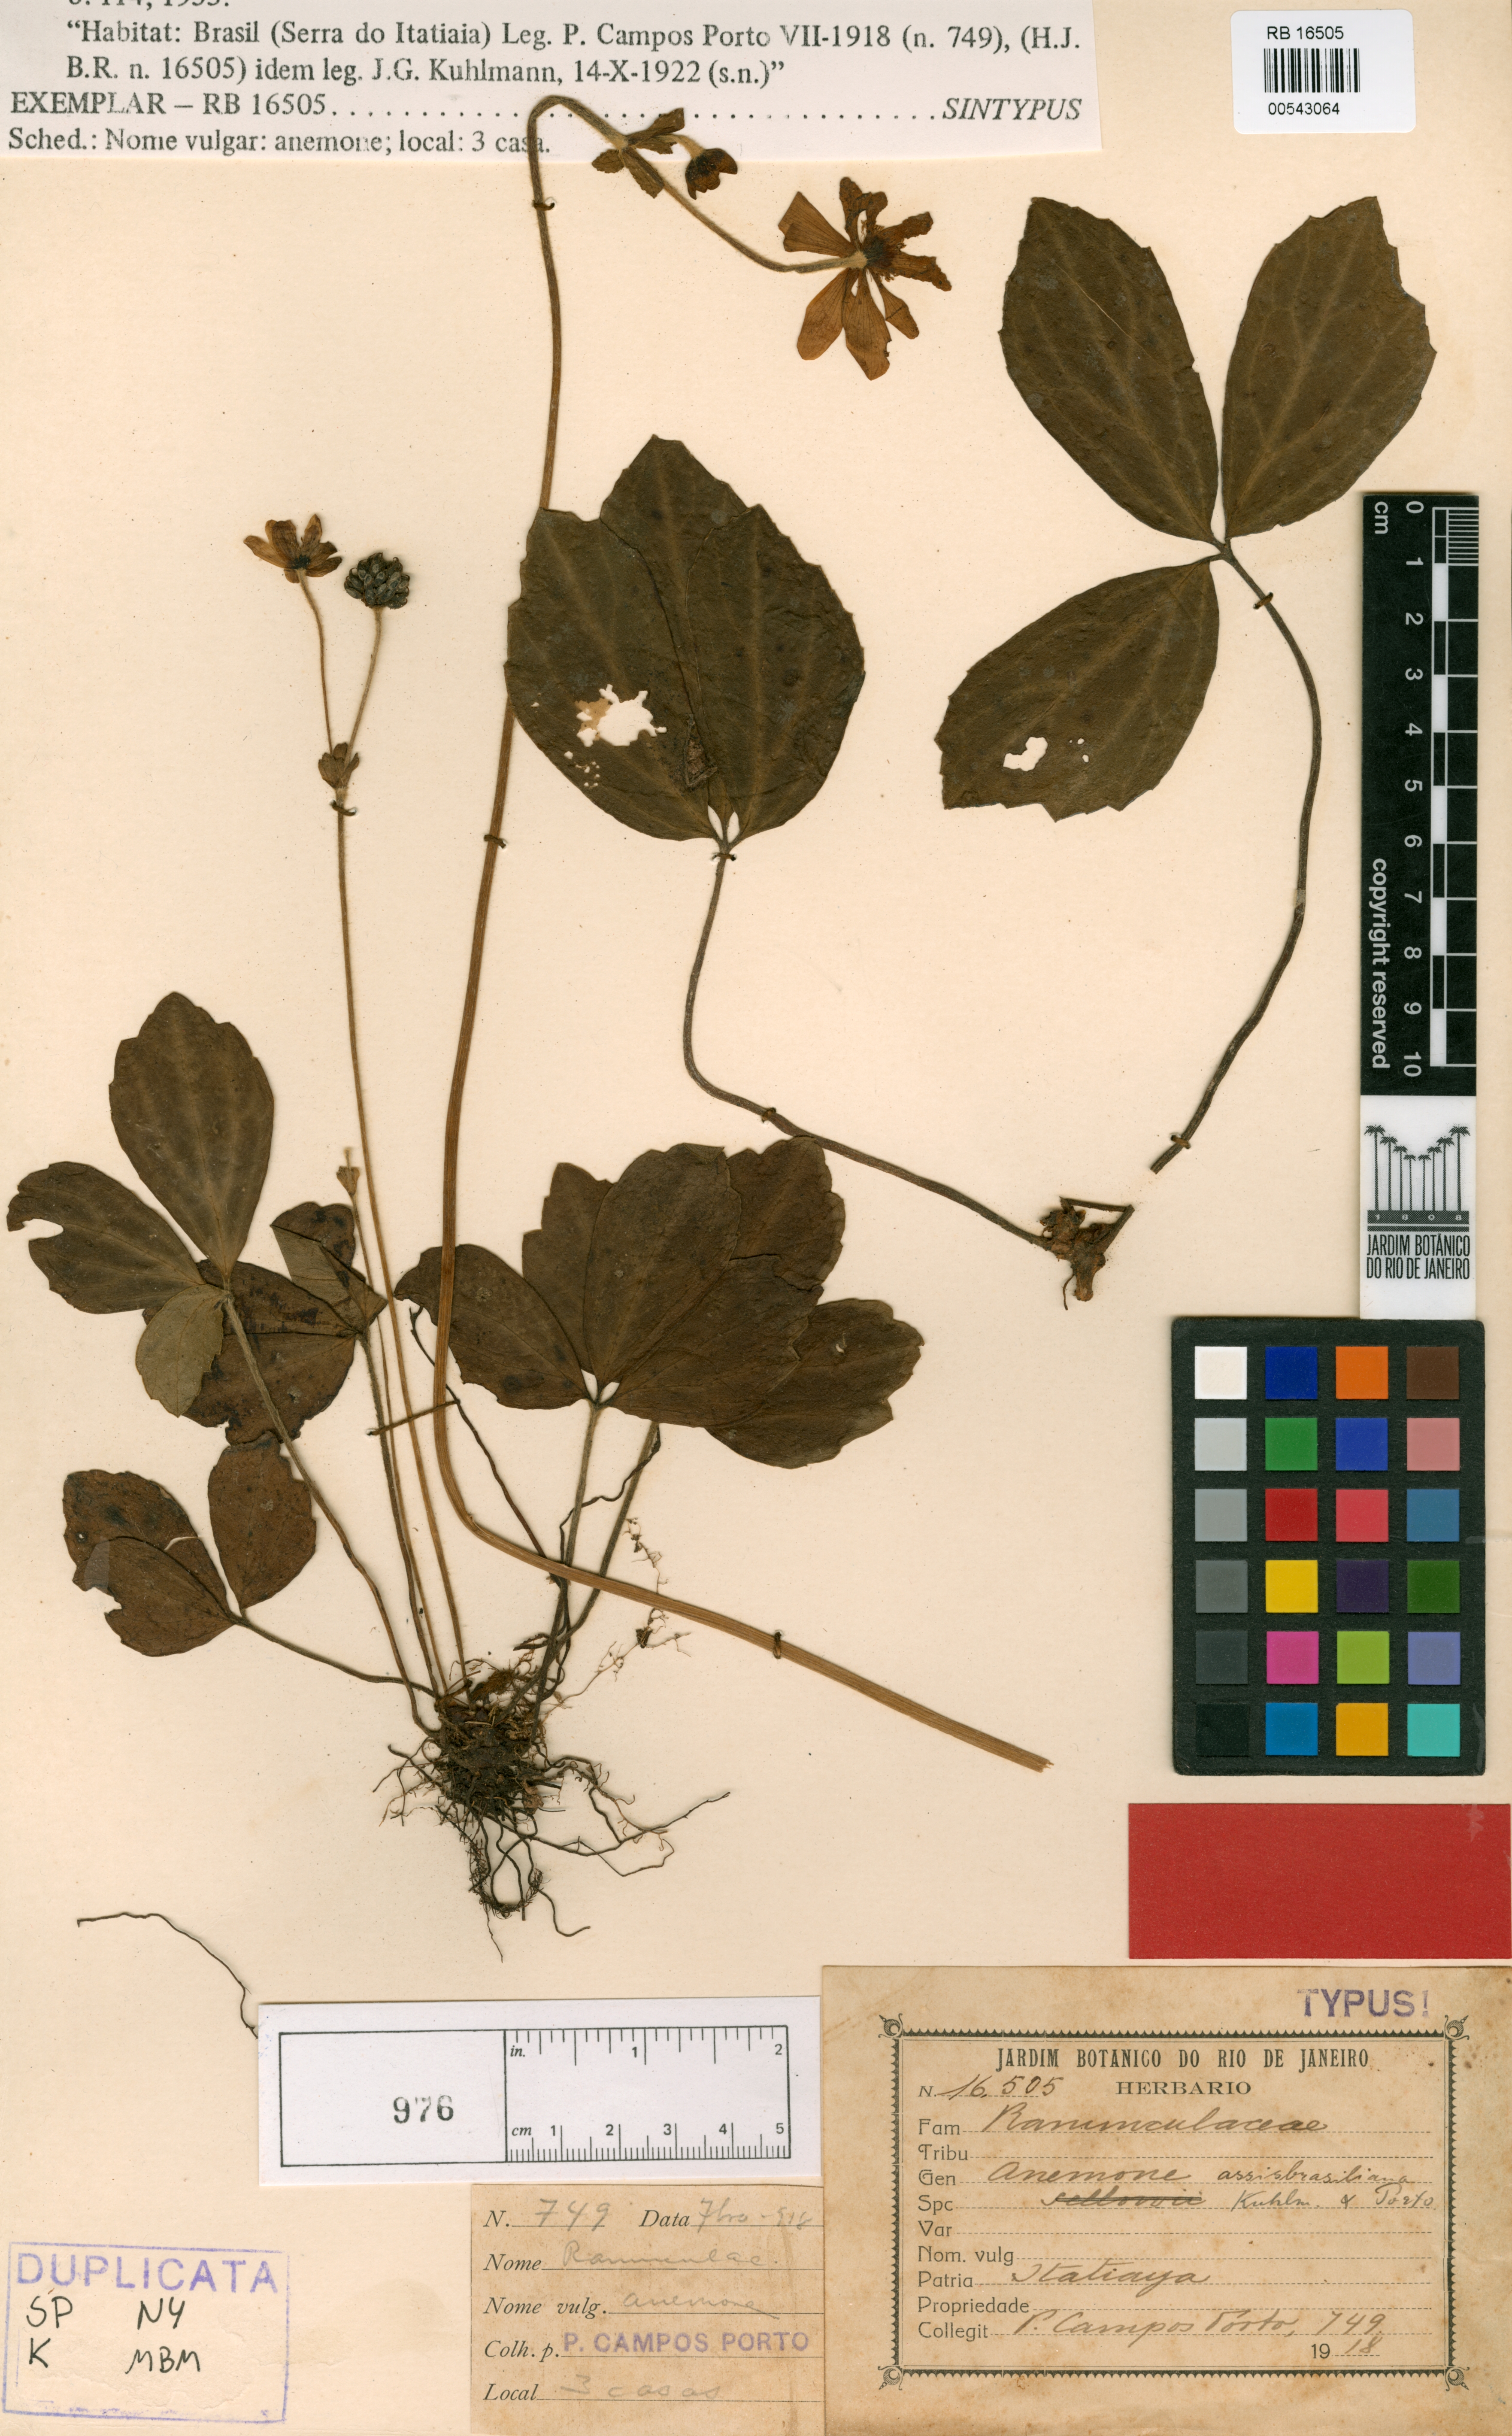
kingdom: Plantae
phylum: Tracheophyta
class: Magnoliopsida
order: Ranunculales
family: Ranunculaceae
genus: Knowltonia
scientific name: Knowltonia assisbrasiliana
